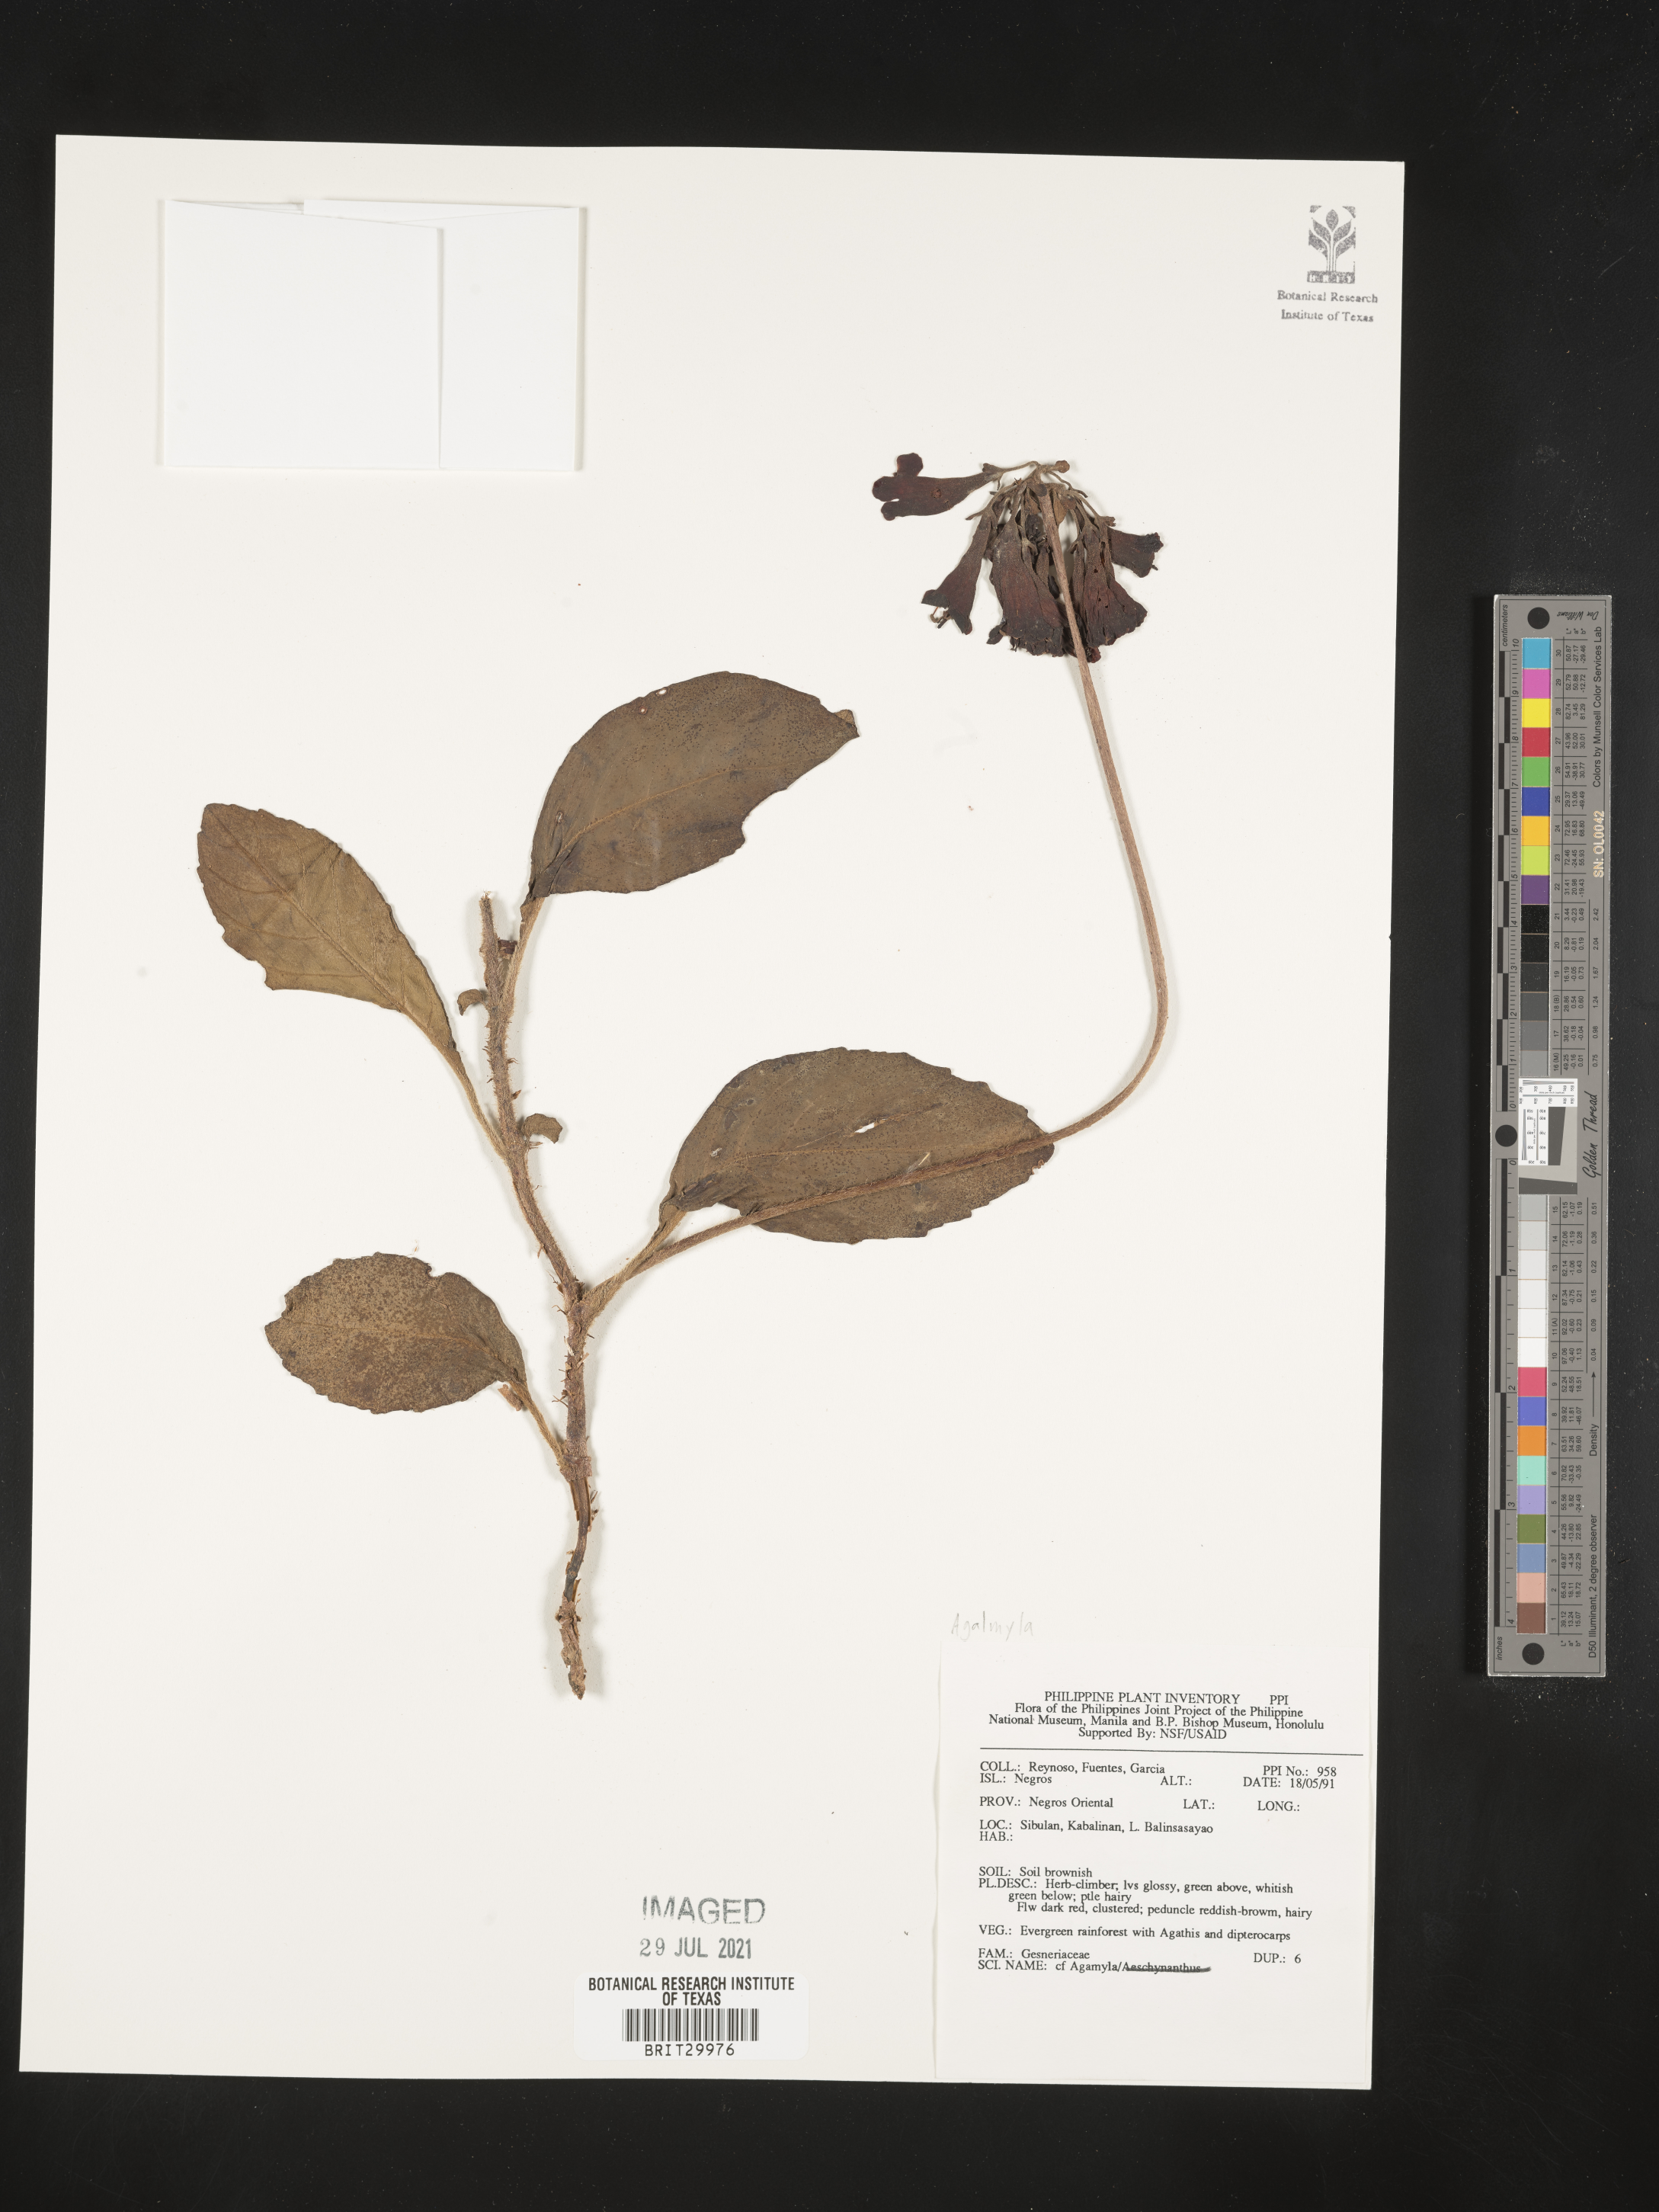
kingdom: Plantae
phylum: Tracheophyta
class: Magnoliopsida
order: Lamiales
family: Gesneriaceae
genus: Agalmyla
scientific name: Agalmyla
